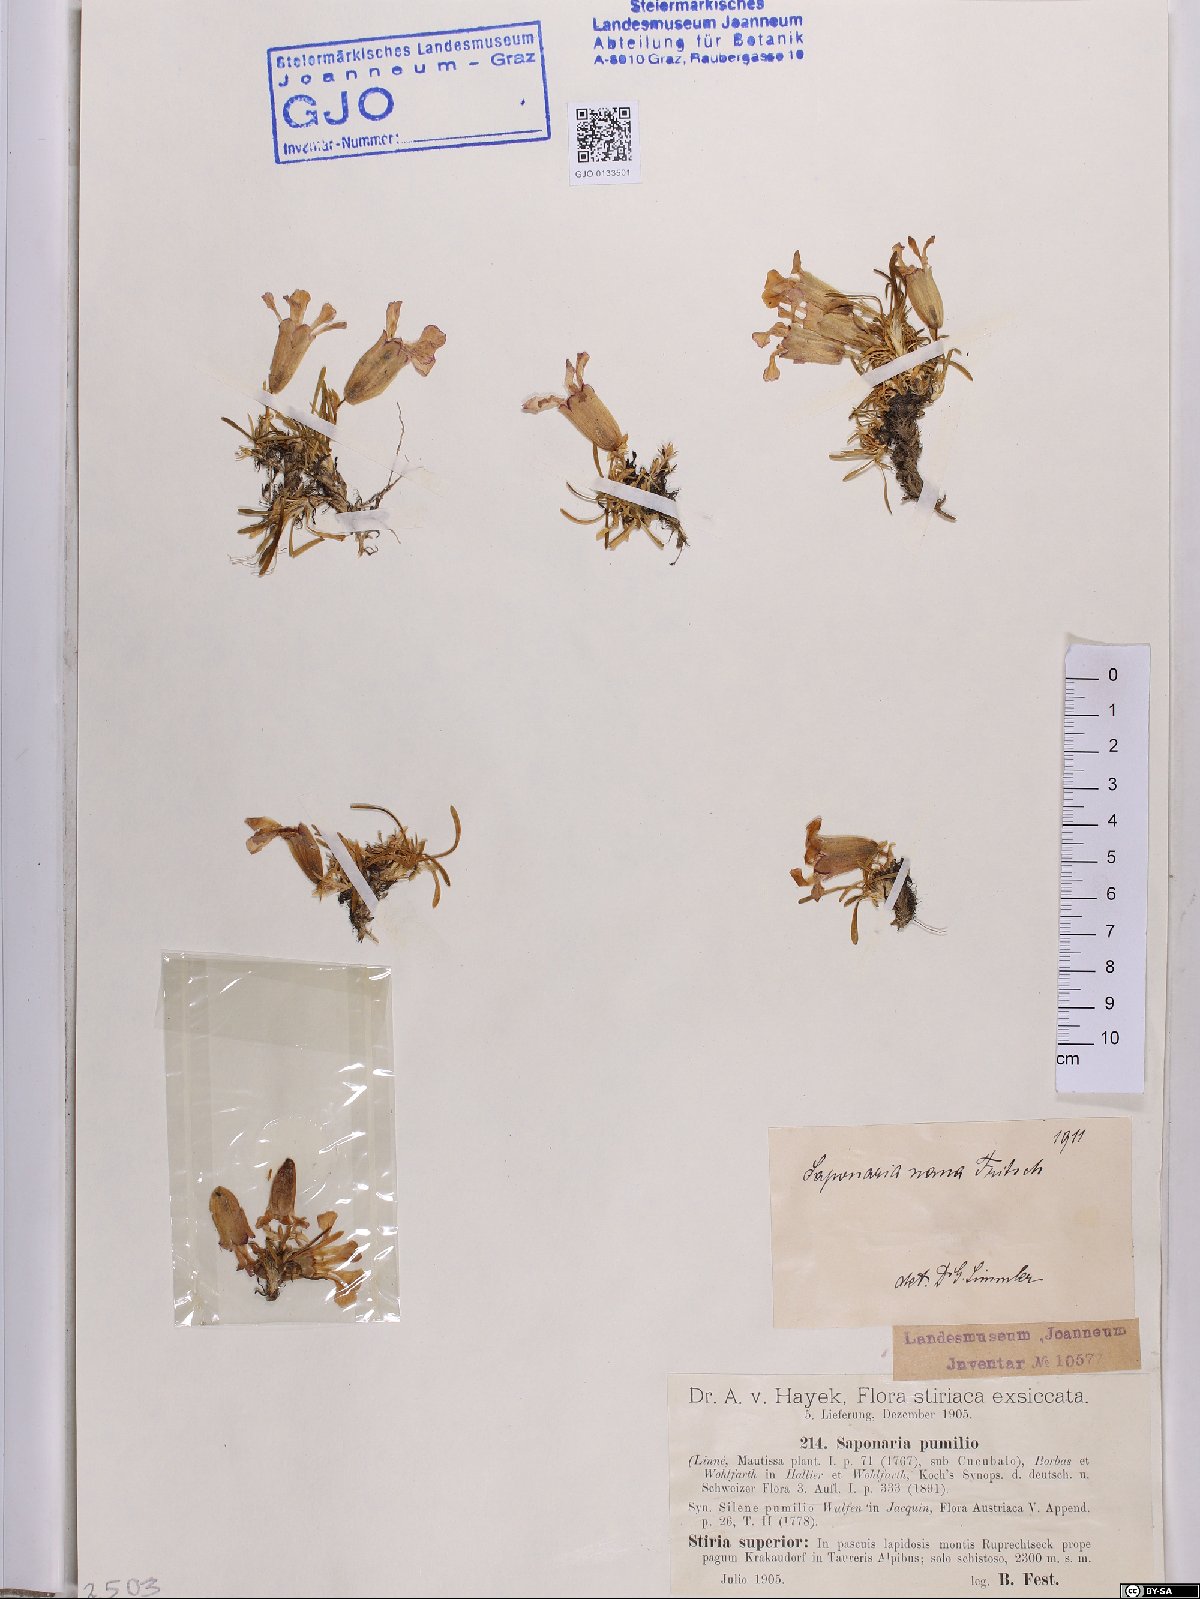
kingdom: Plantae
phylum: Tracheophyta
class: Magnoliopsida
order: Caryophyllales
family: Caryophyllaceae
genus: Saponaria
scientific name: Saponaria pumila
